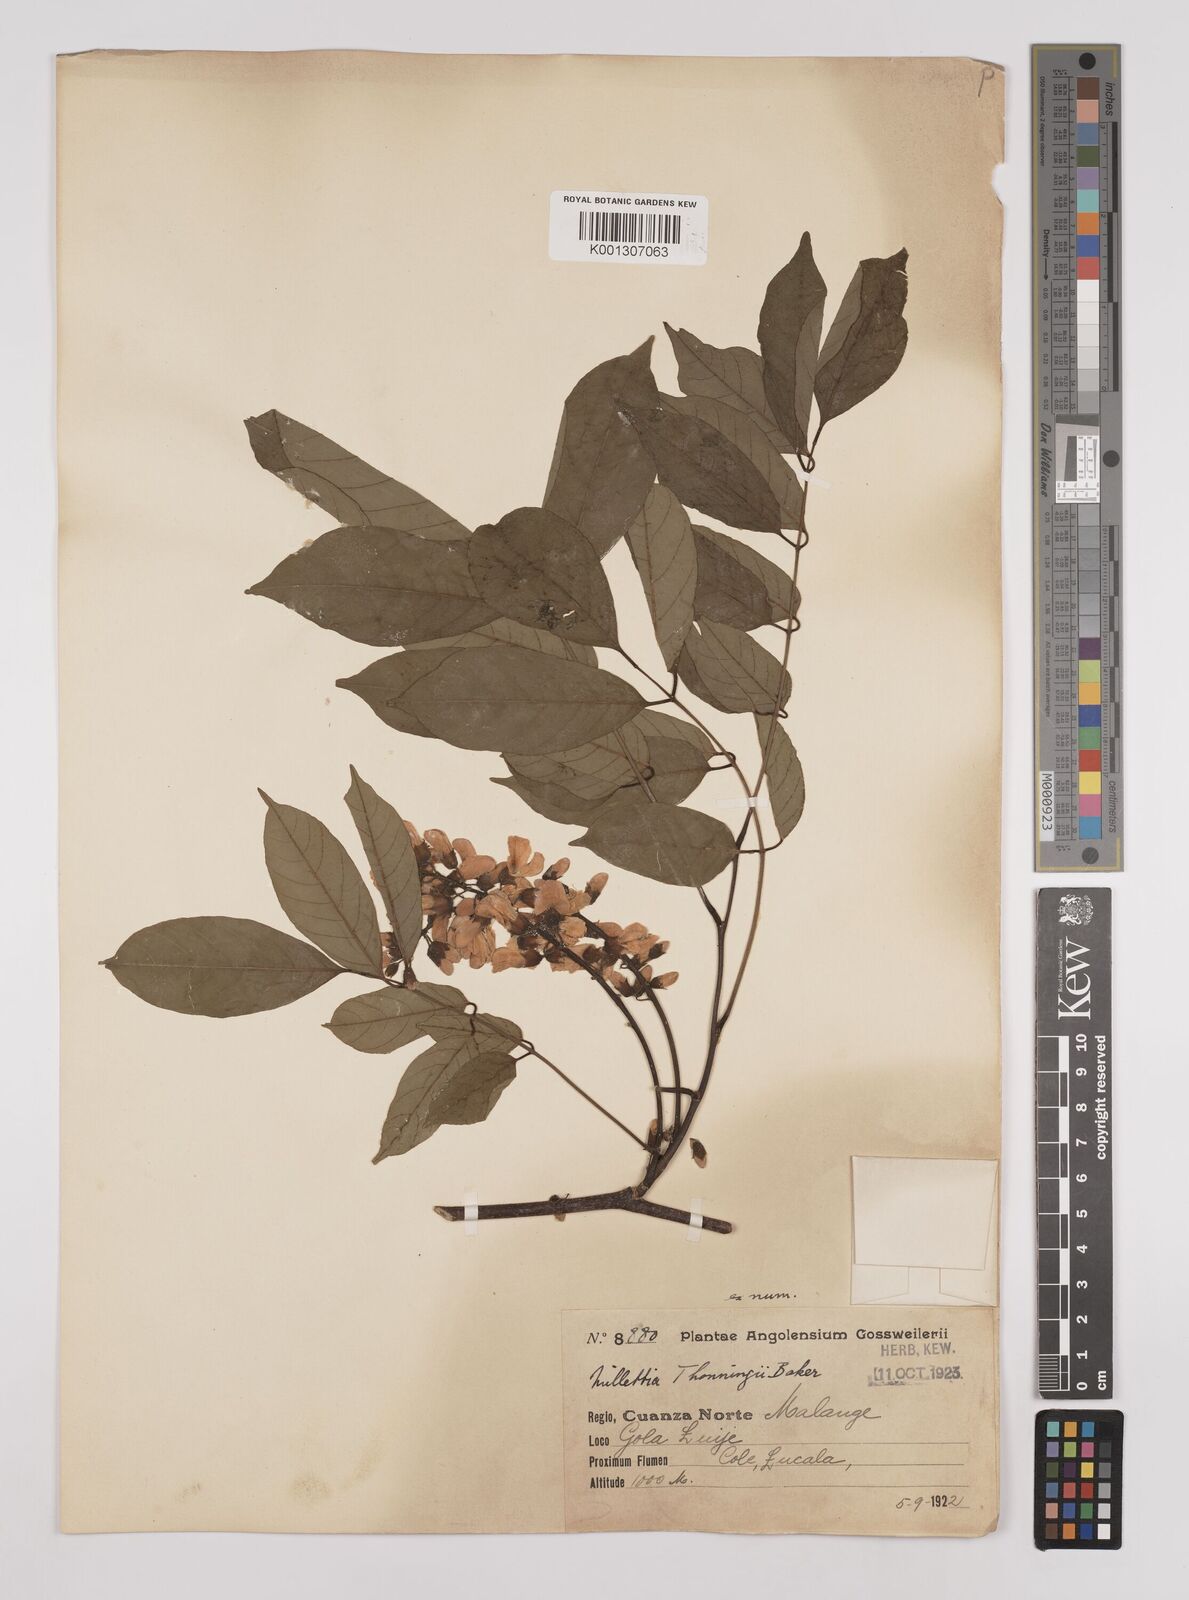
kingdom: Plantae
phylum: Tracheophyta
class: Magnoliopsida
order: Fabales
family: Fabaceae
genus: Millettia
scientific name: Millettia thonningii
